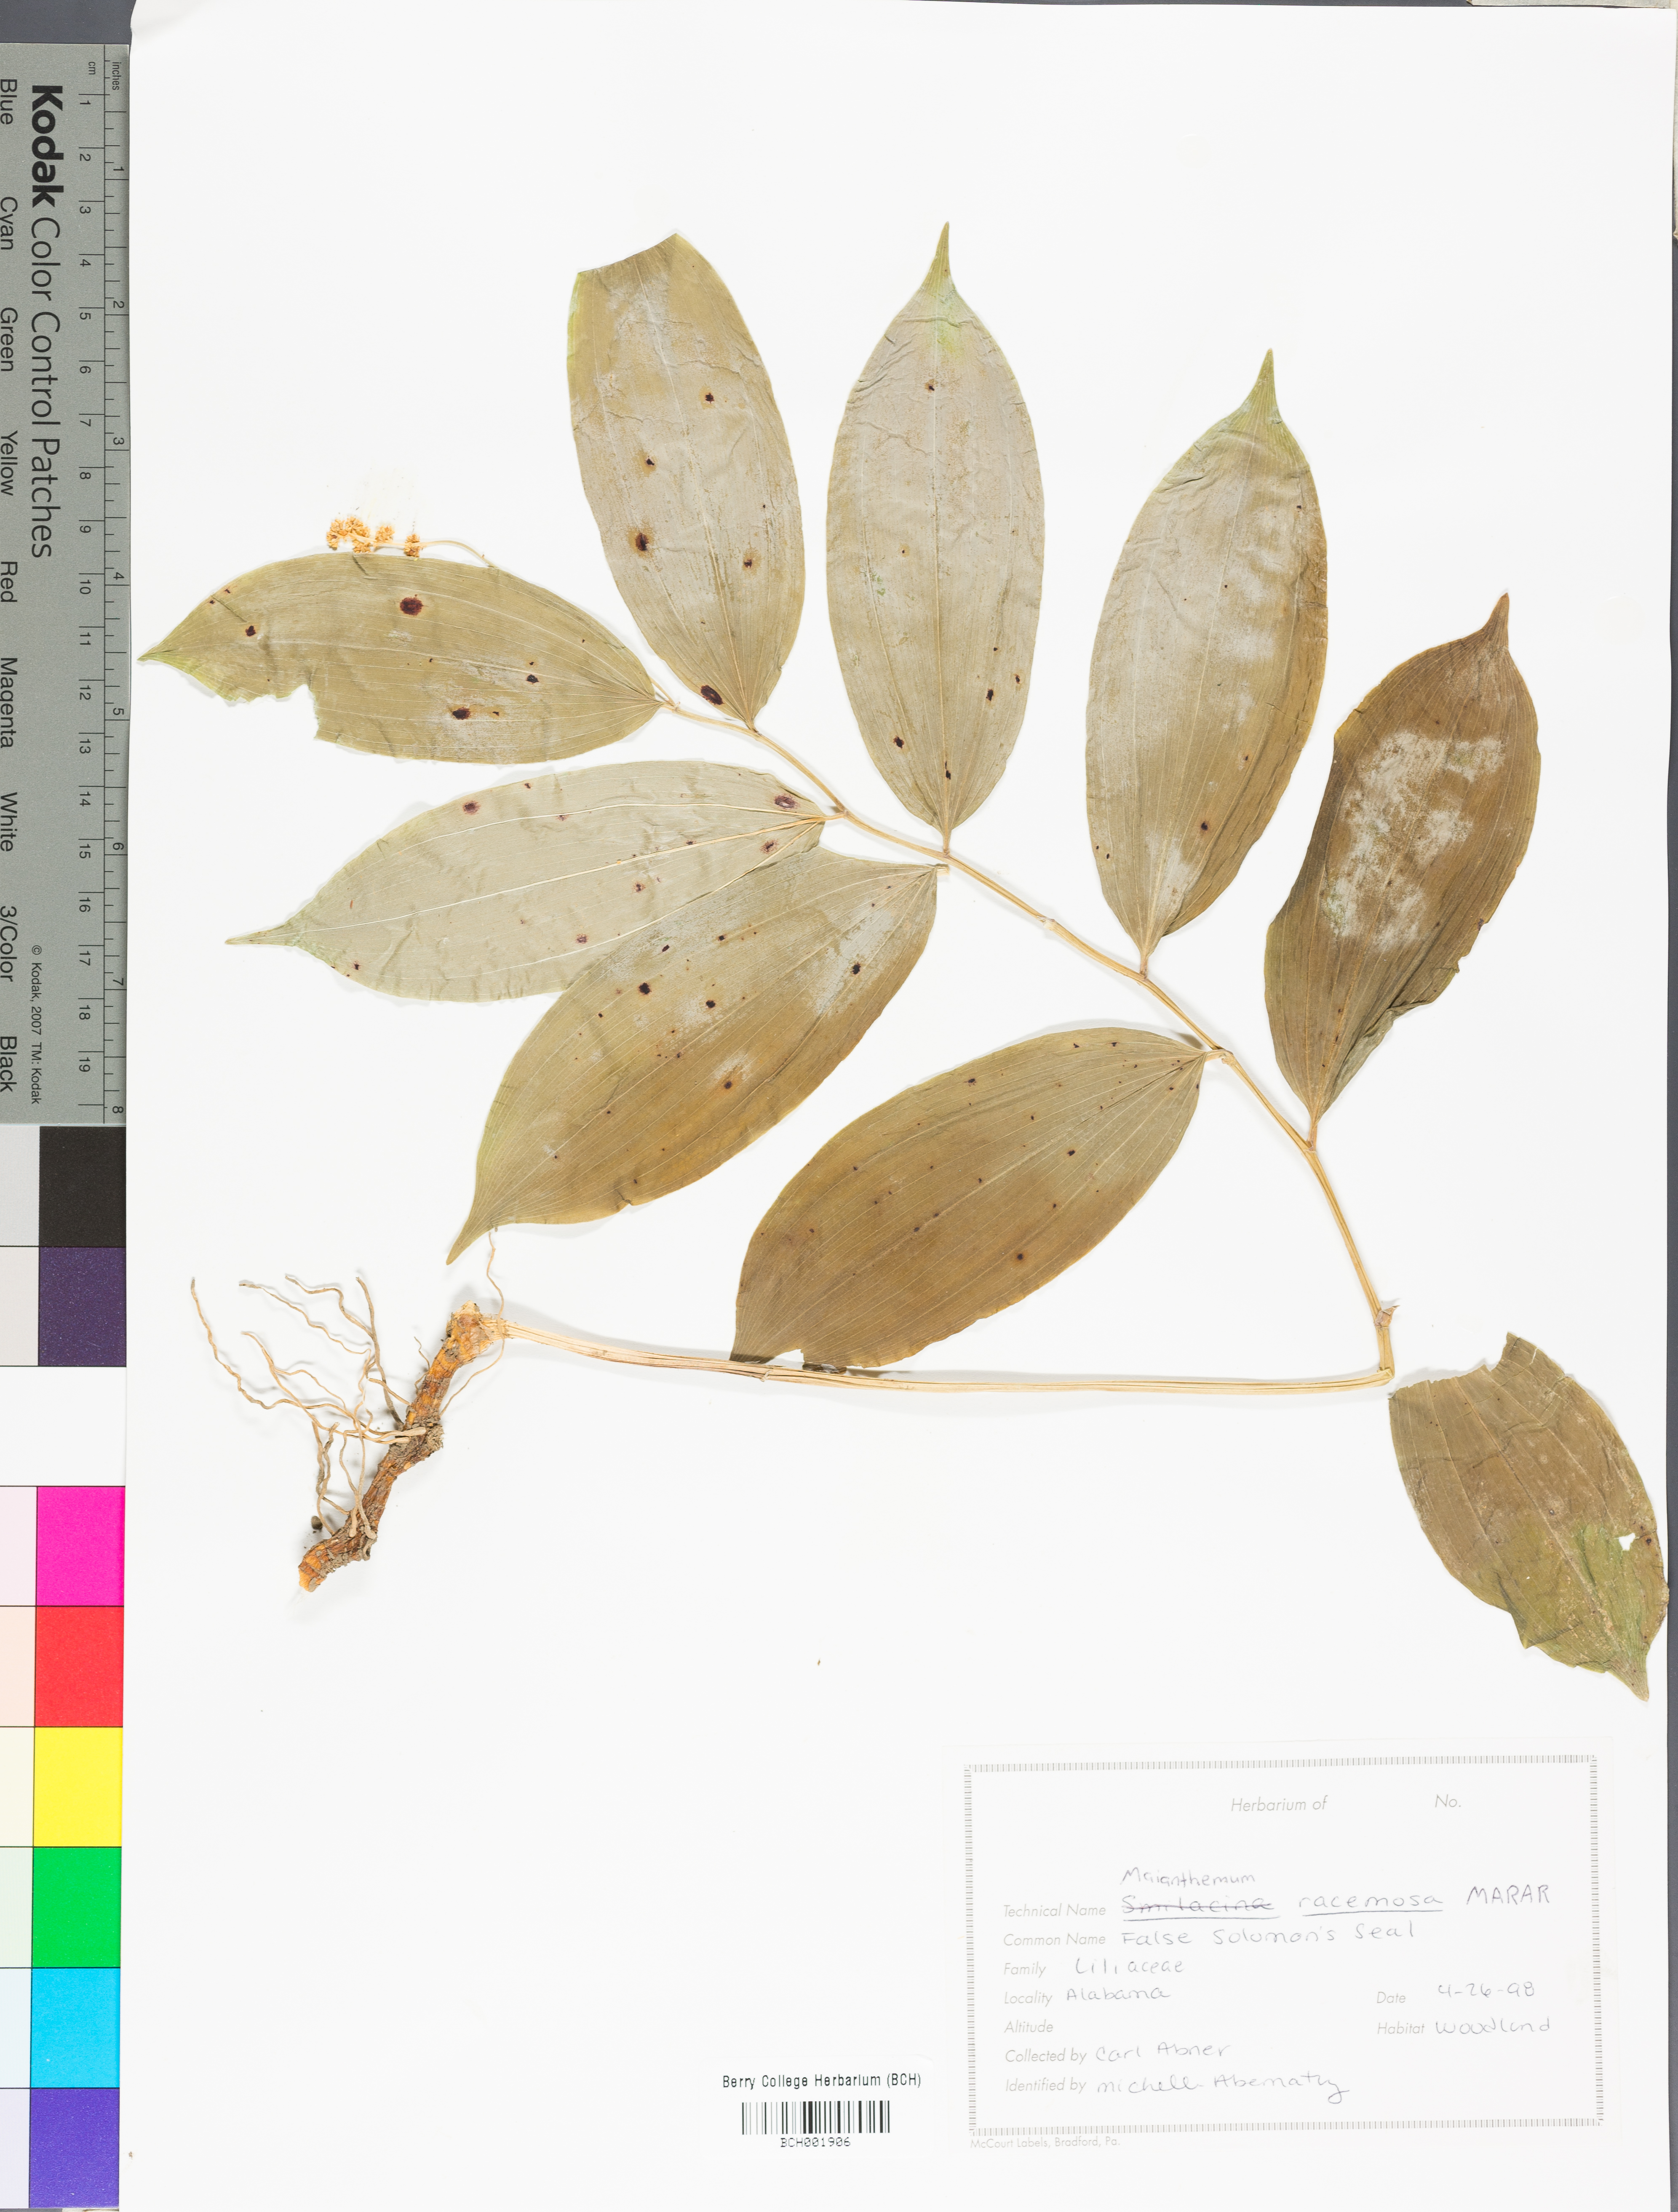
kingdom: Plantae
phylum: Tracheophyta
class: Liliopsida
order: Asparagales
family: Asparagaceae
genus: Maianthemum
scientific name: Maianthemum racemosum
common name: False spikenard
